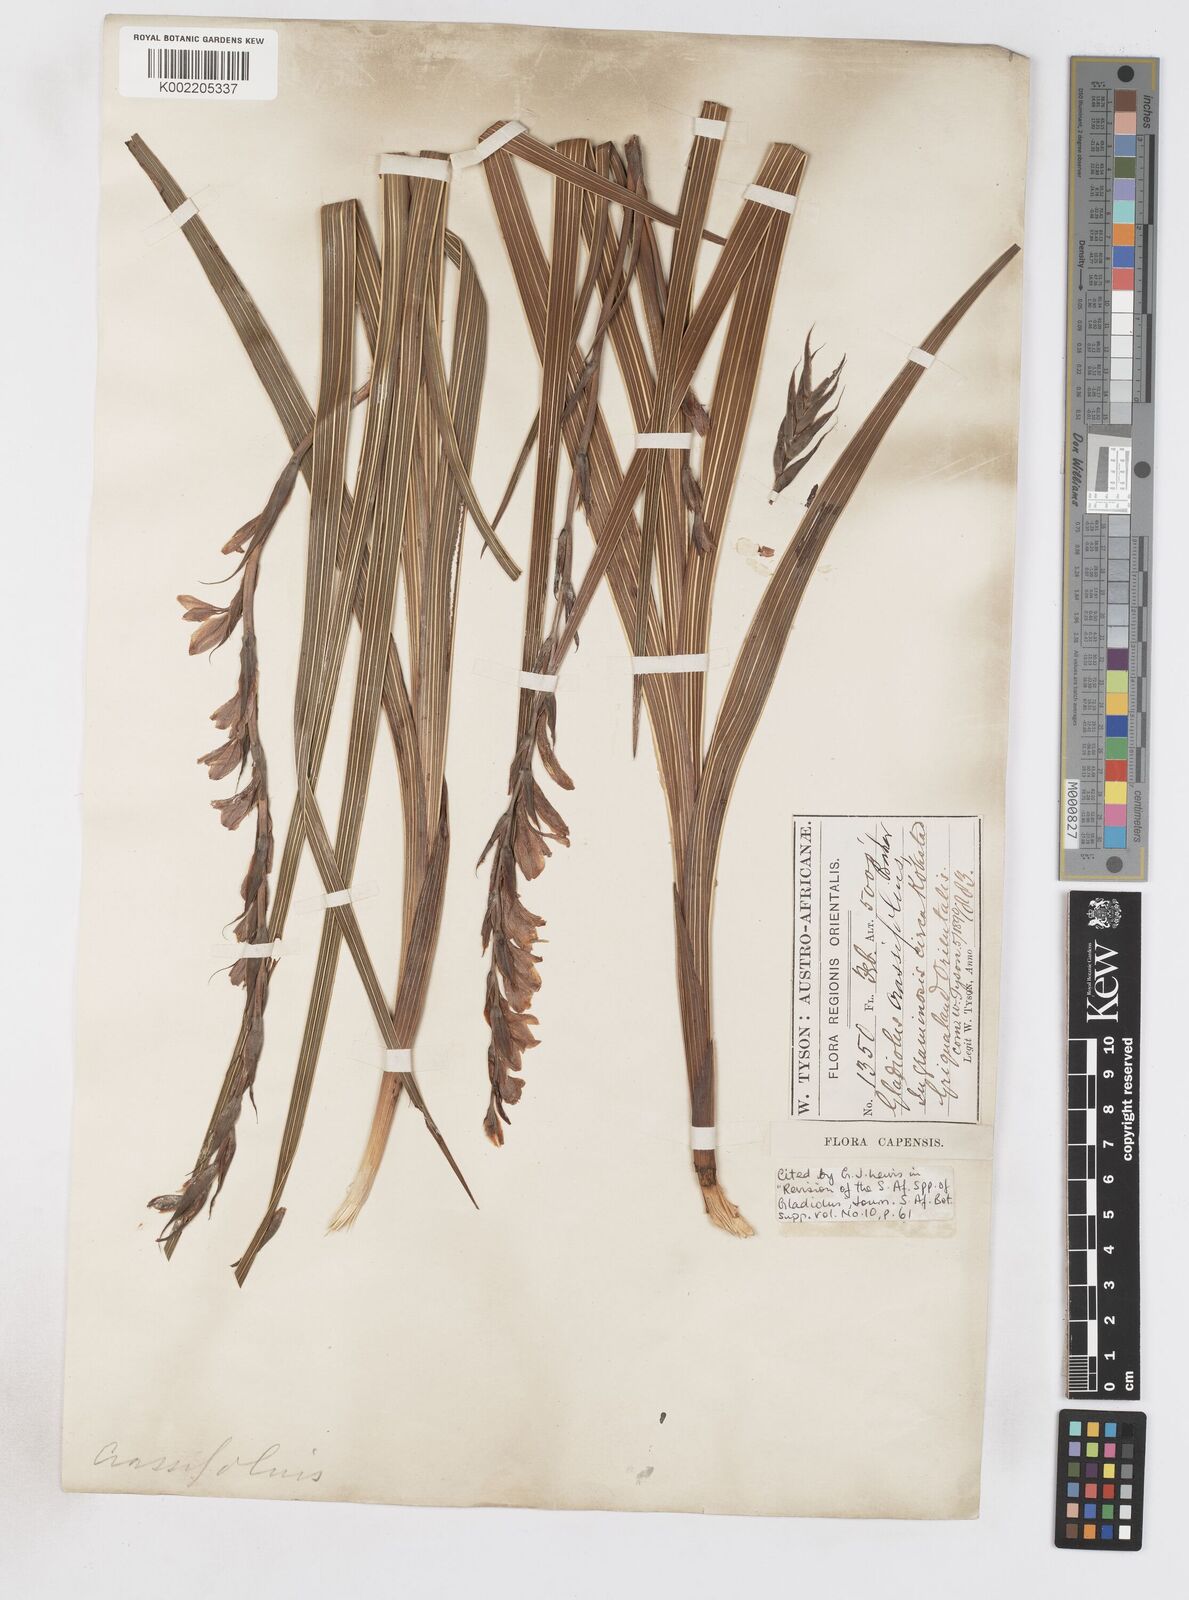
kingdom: Plantae
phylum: Tracheophyta
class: Liliopsida
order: Asparagales
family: Iridaceae
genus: Gladiolus
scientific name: Gladiolus crassifolius
